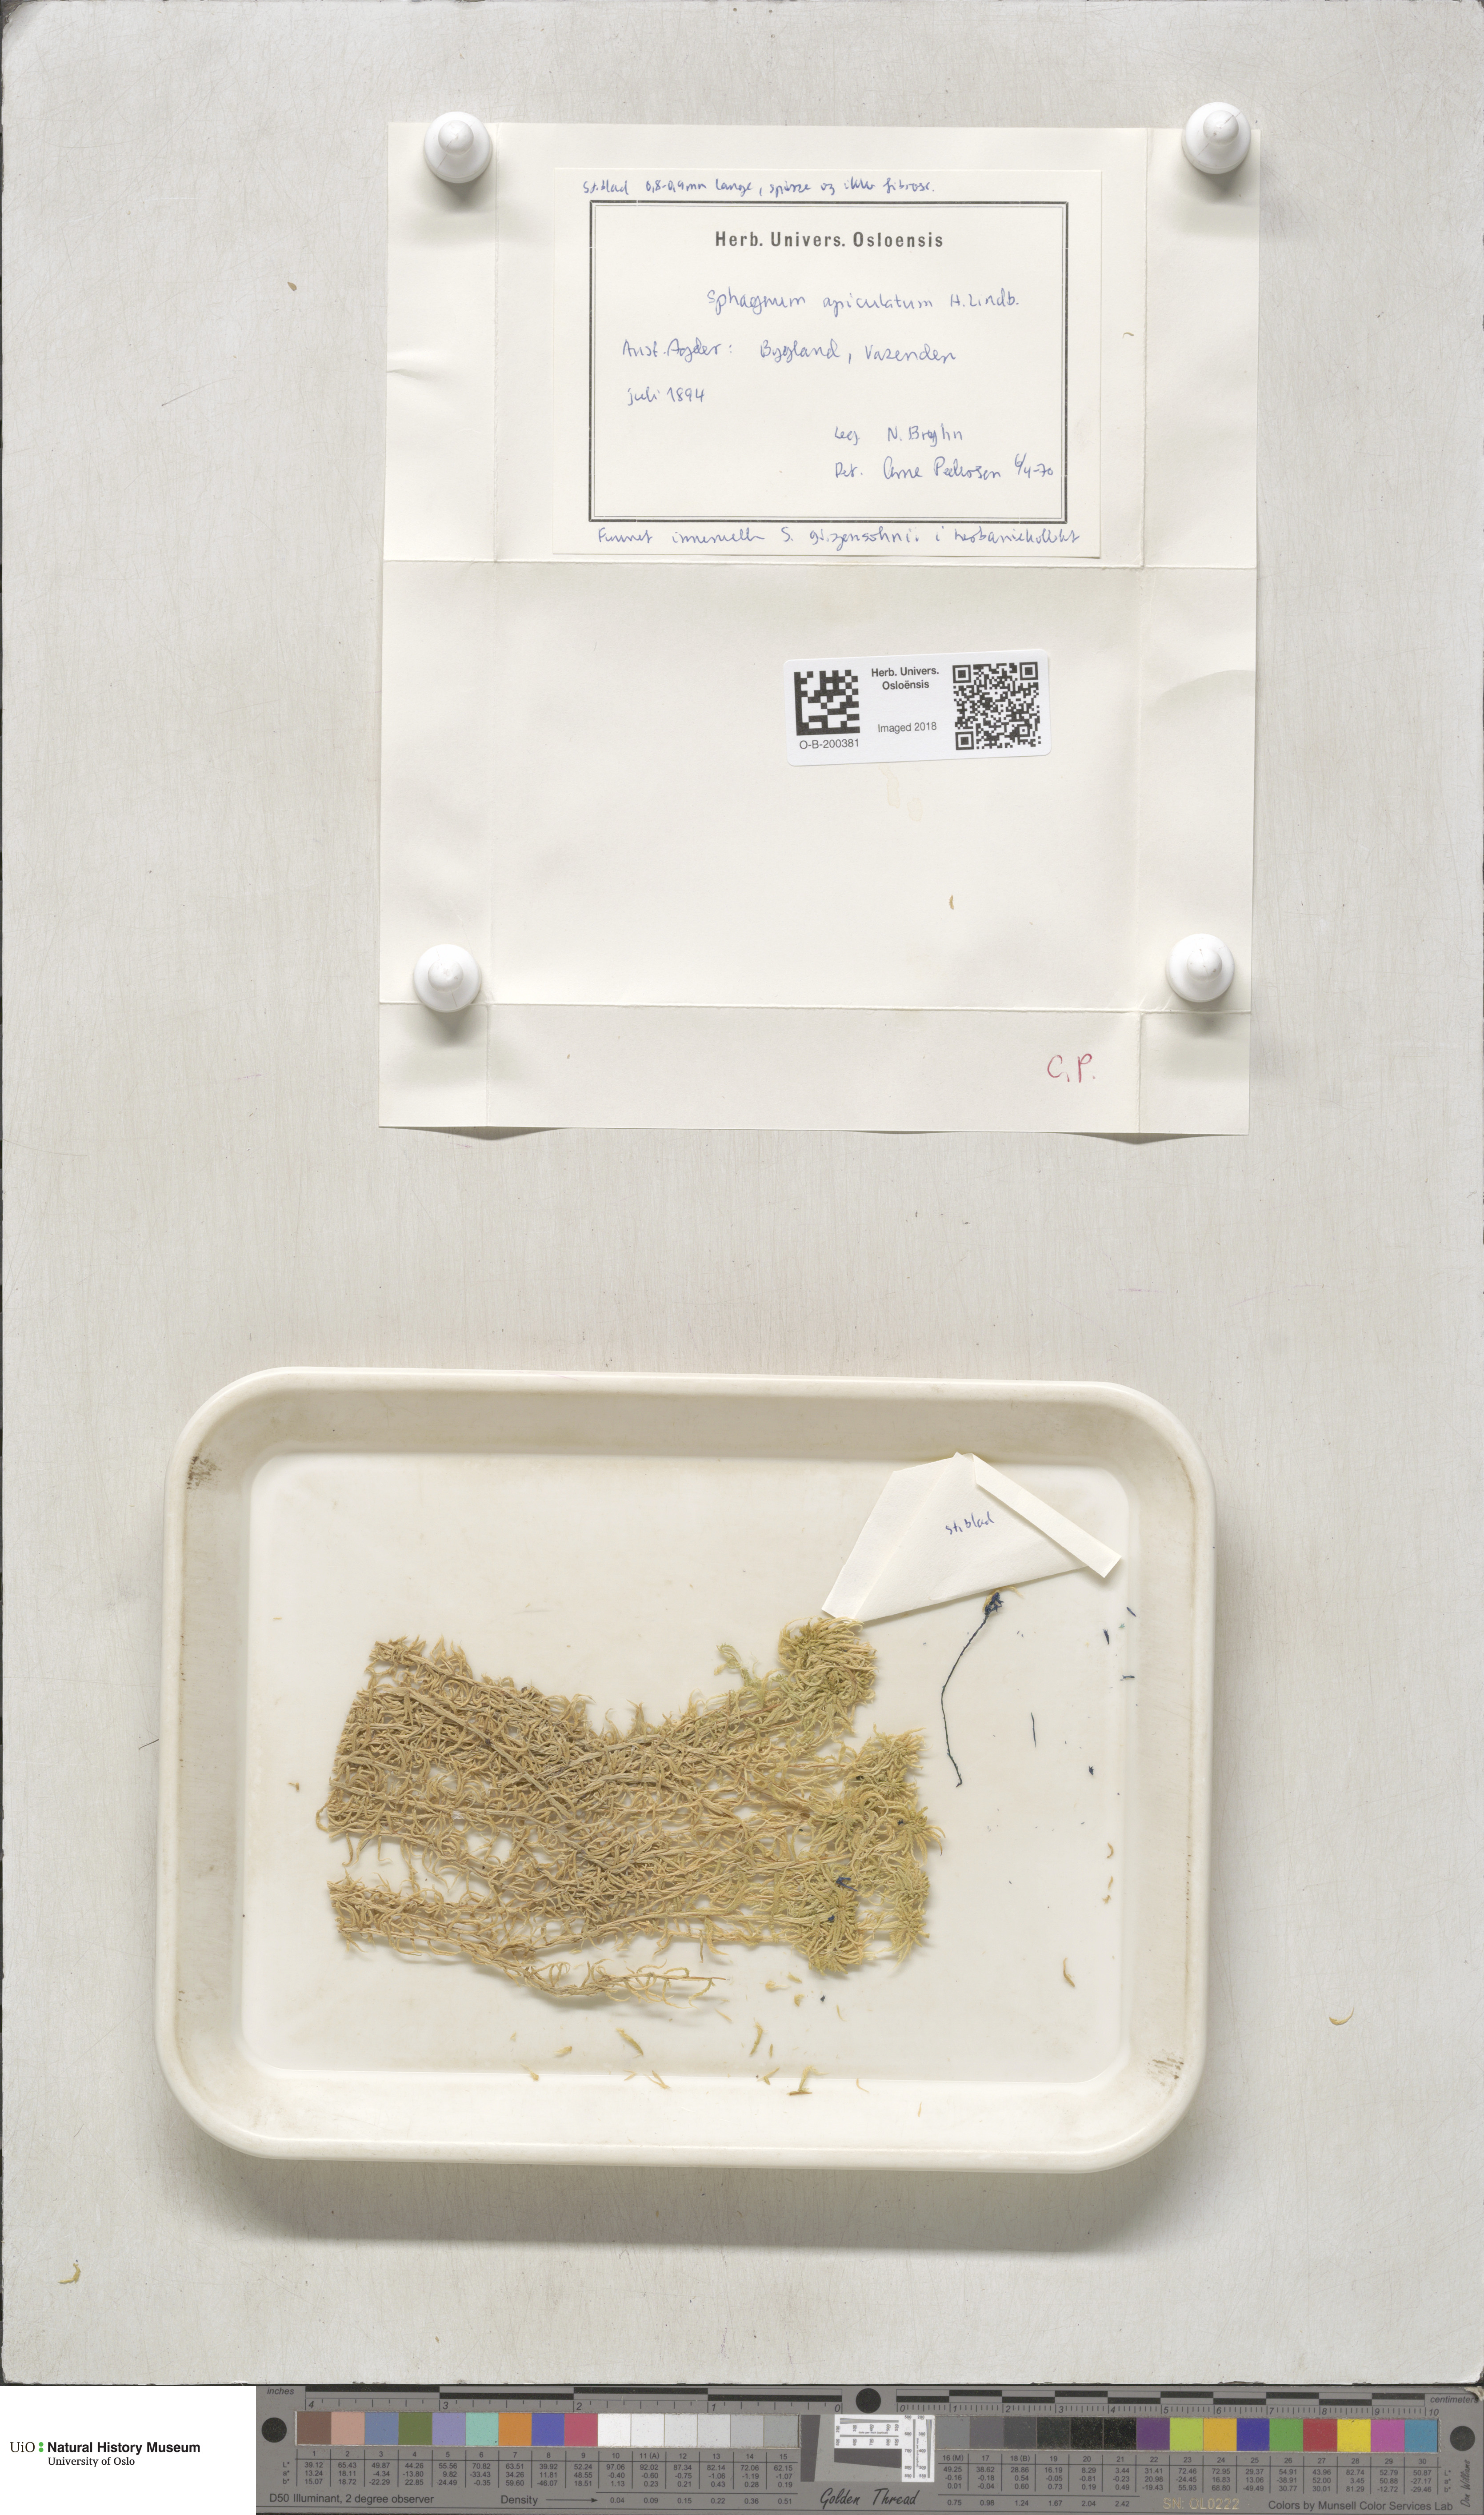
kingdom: Plantae
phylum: Bryophyta
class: Sphagnopsida
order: Sphagnales
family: Sphagnaceae
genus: Sphagnum
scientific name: Sphagnum fallax
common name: Flat-top peat moss
